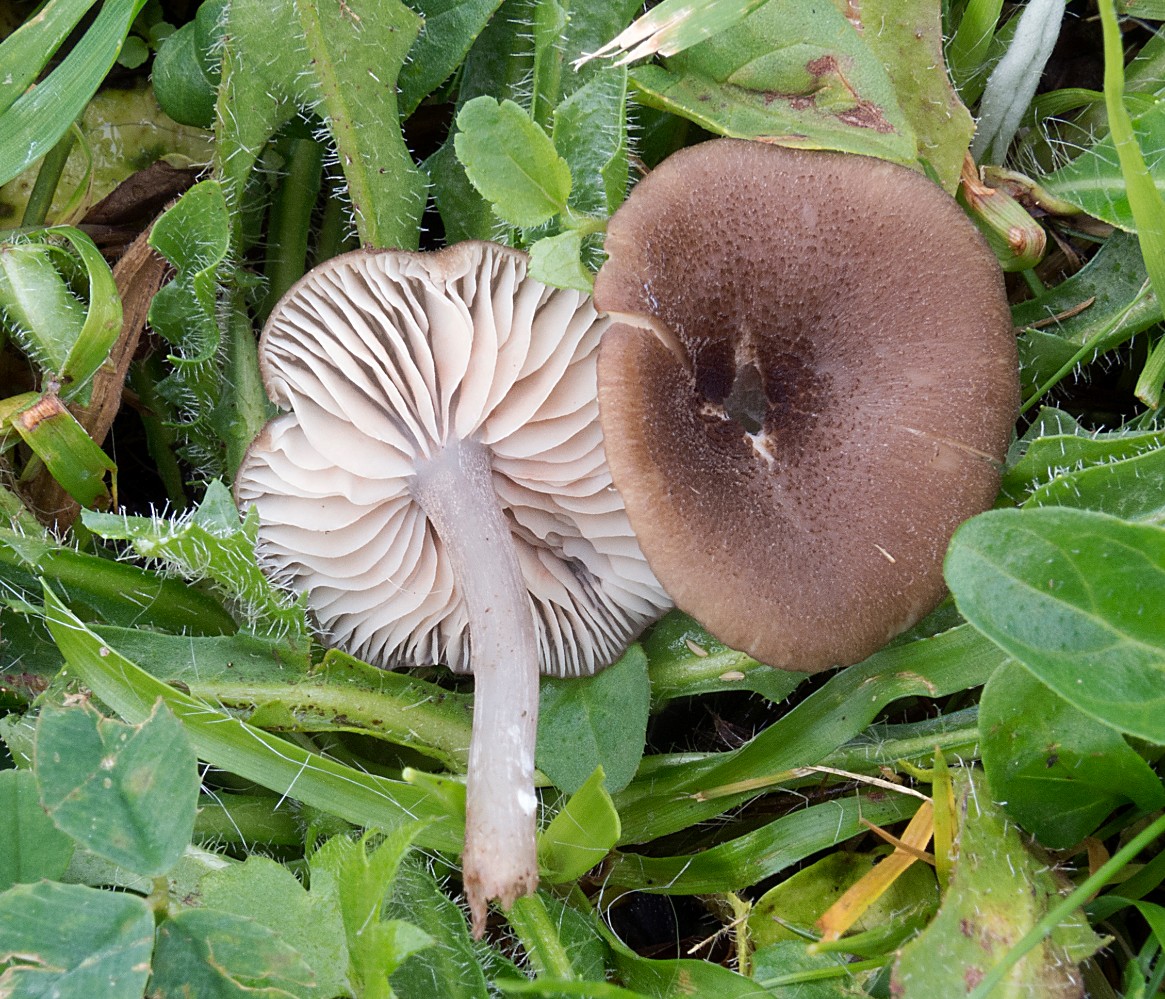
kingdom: Fungi
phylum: Basidiomycota
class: Agaricomycetes
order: Agaricales
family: Entolomataceae
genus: Entoloma
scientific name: Entoloma
